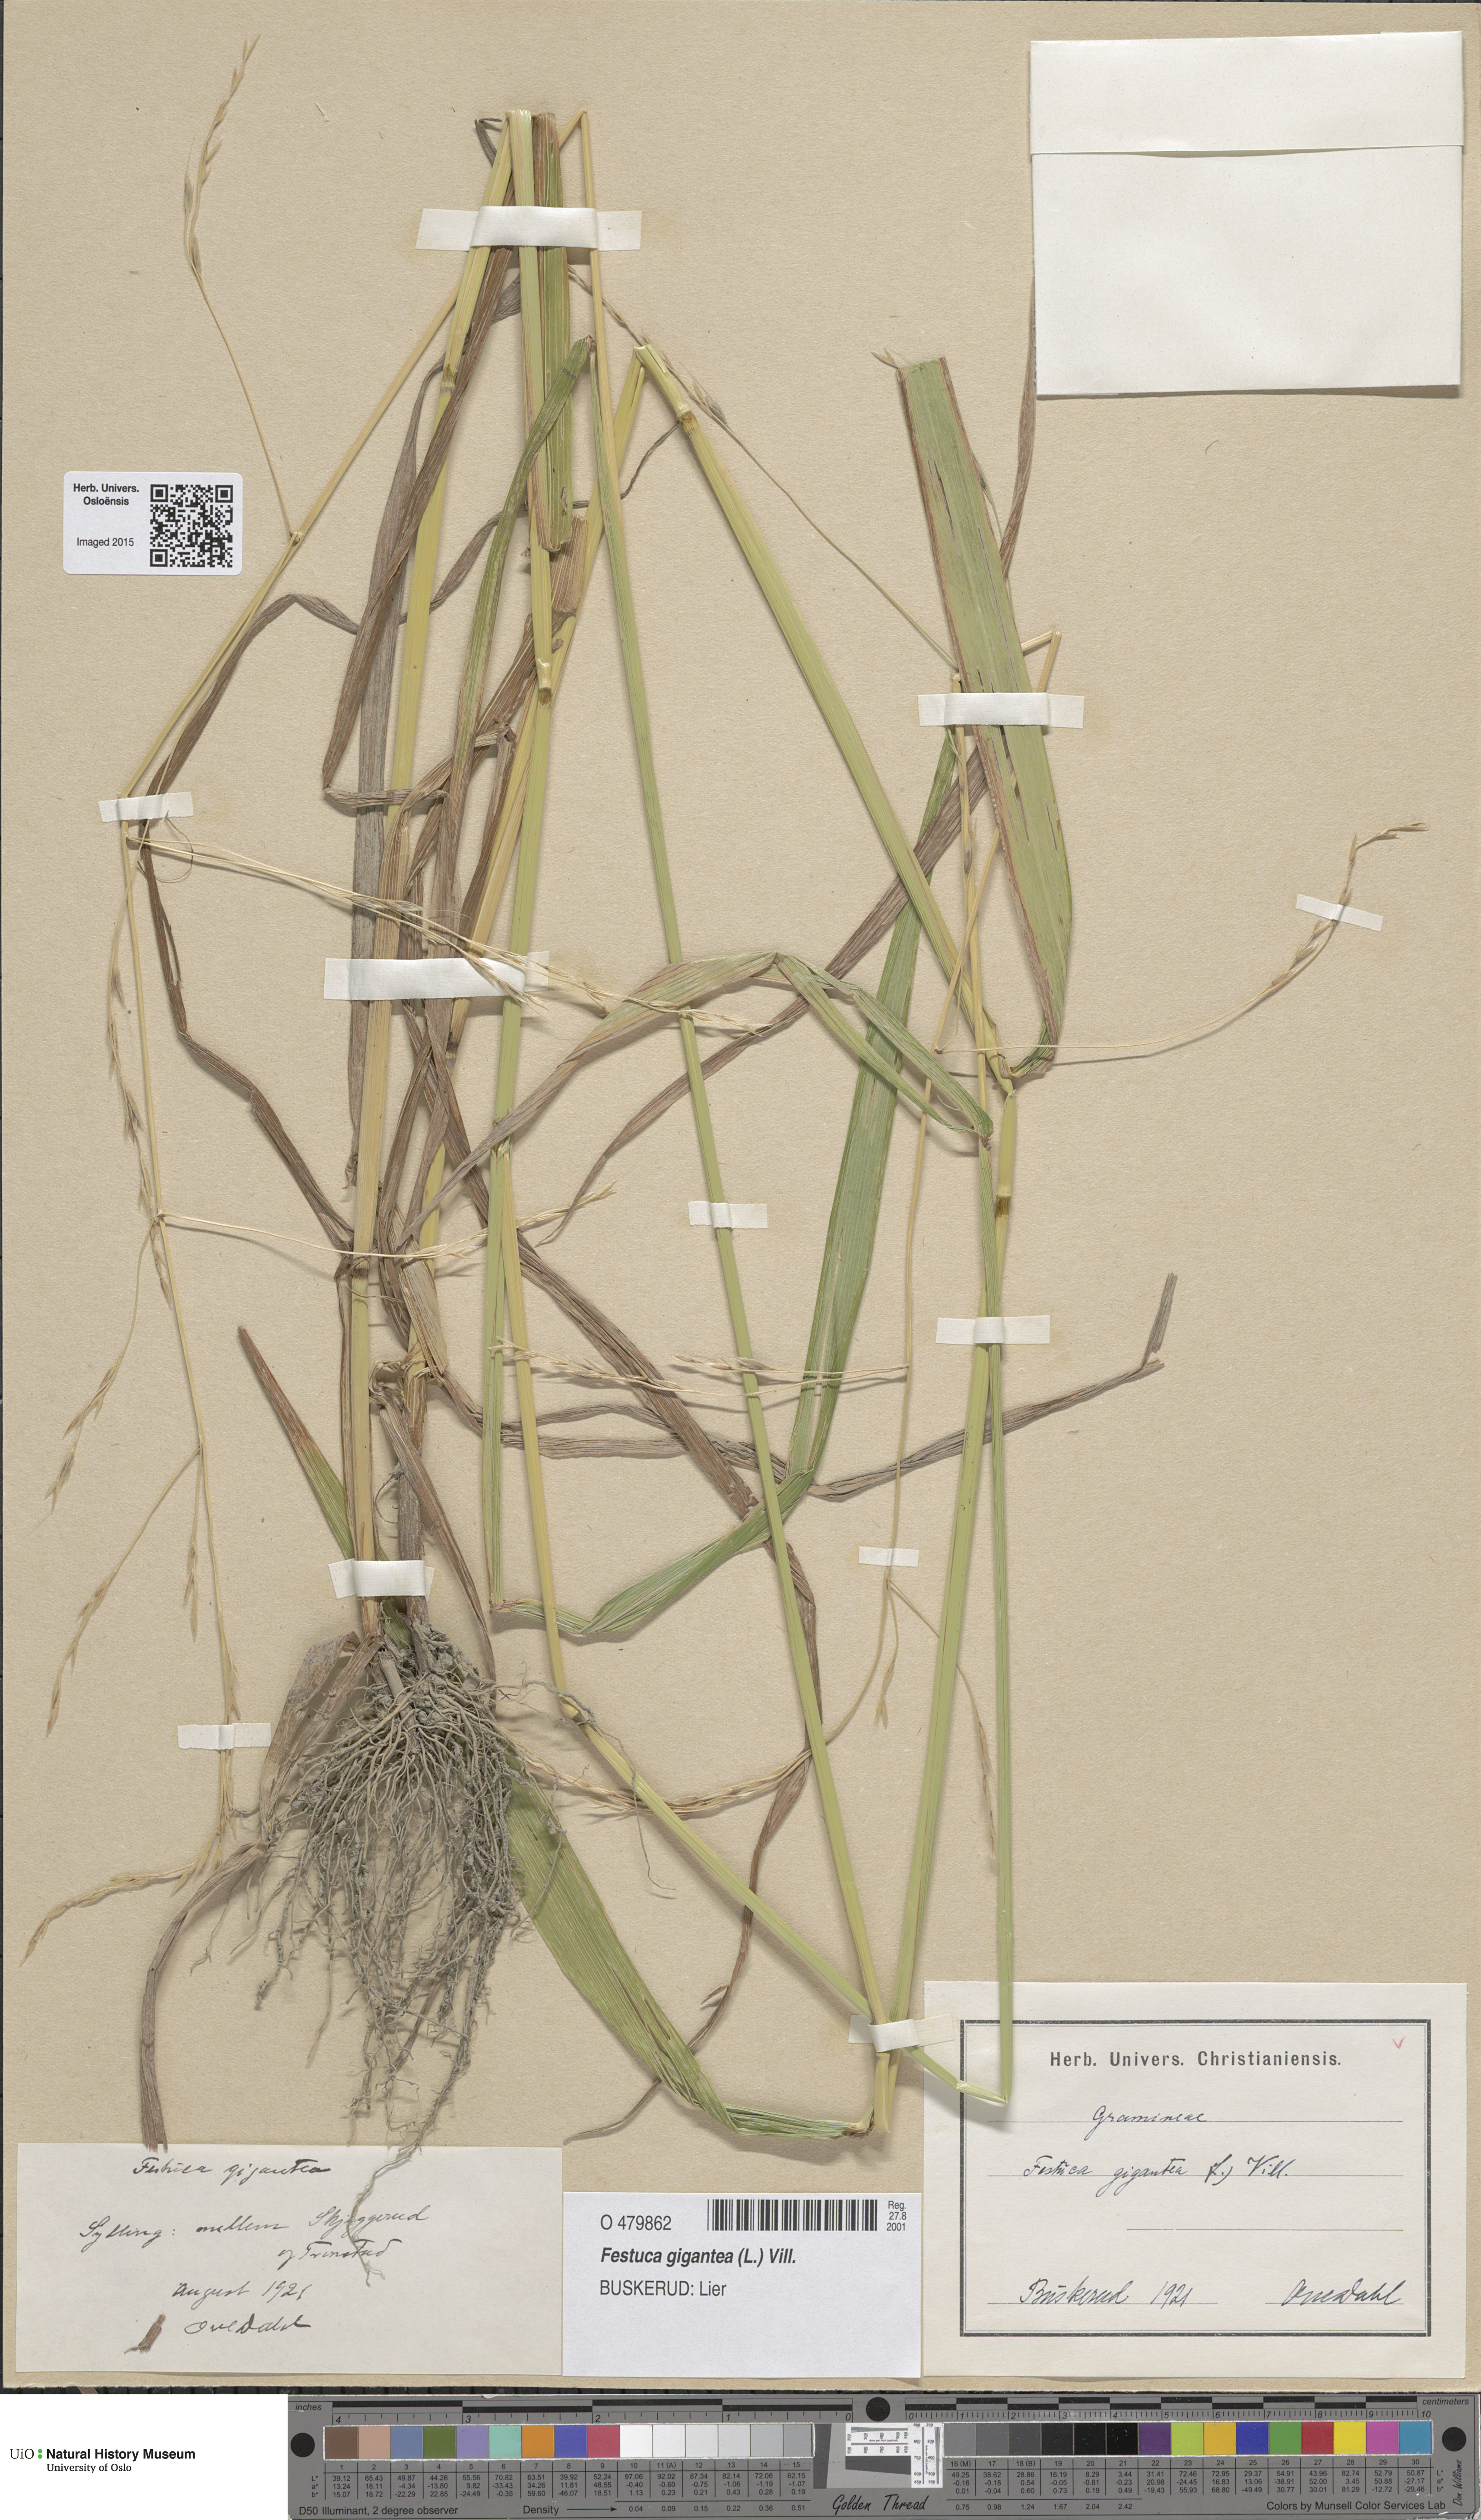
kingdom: Plantae
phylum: Tracheophyta
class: Liliopsida
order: Poales
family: Poaceae
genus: Lolium
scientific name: Lolium giganteum
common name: Giant fescue
